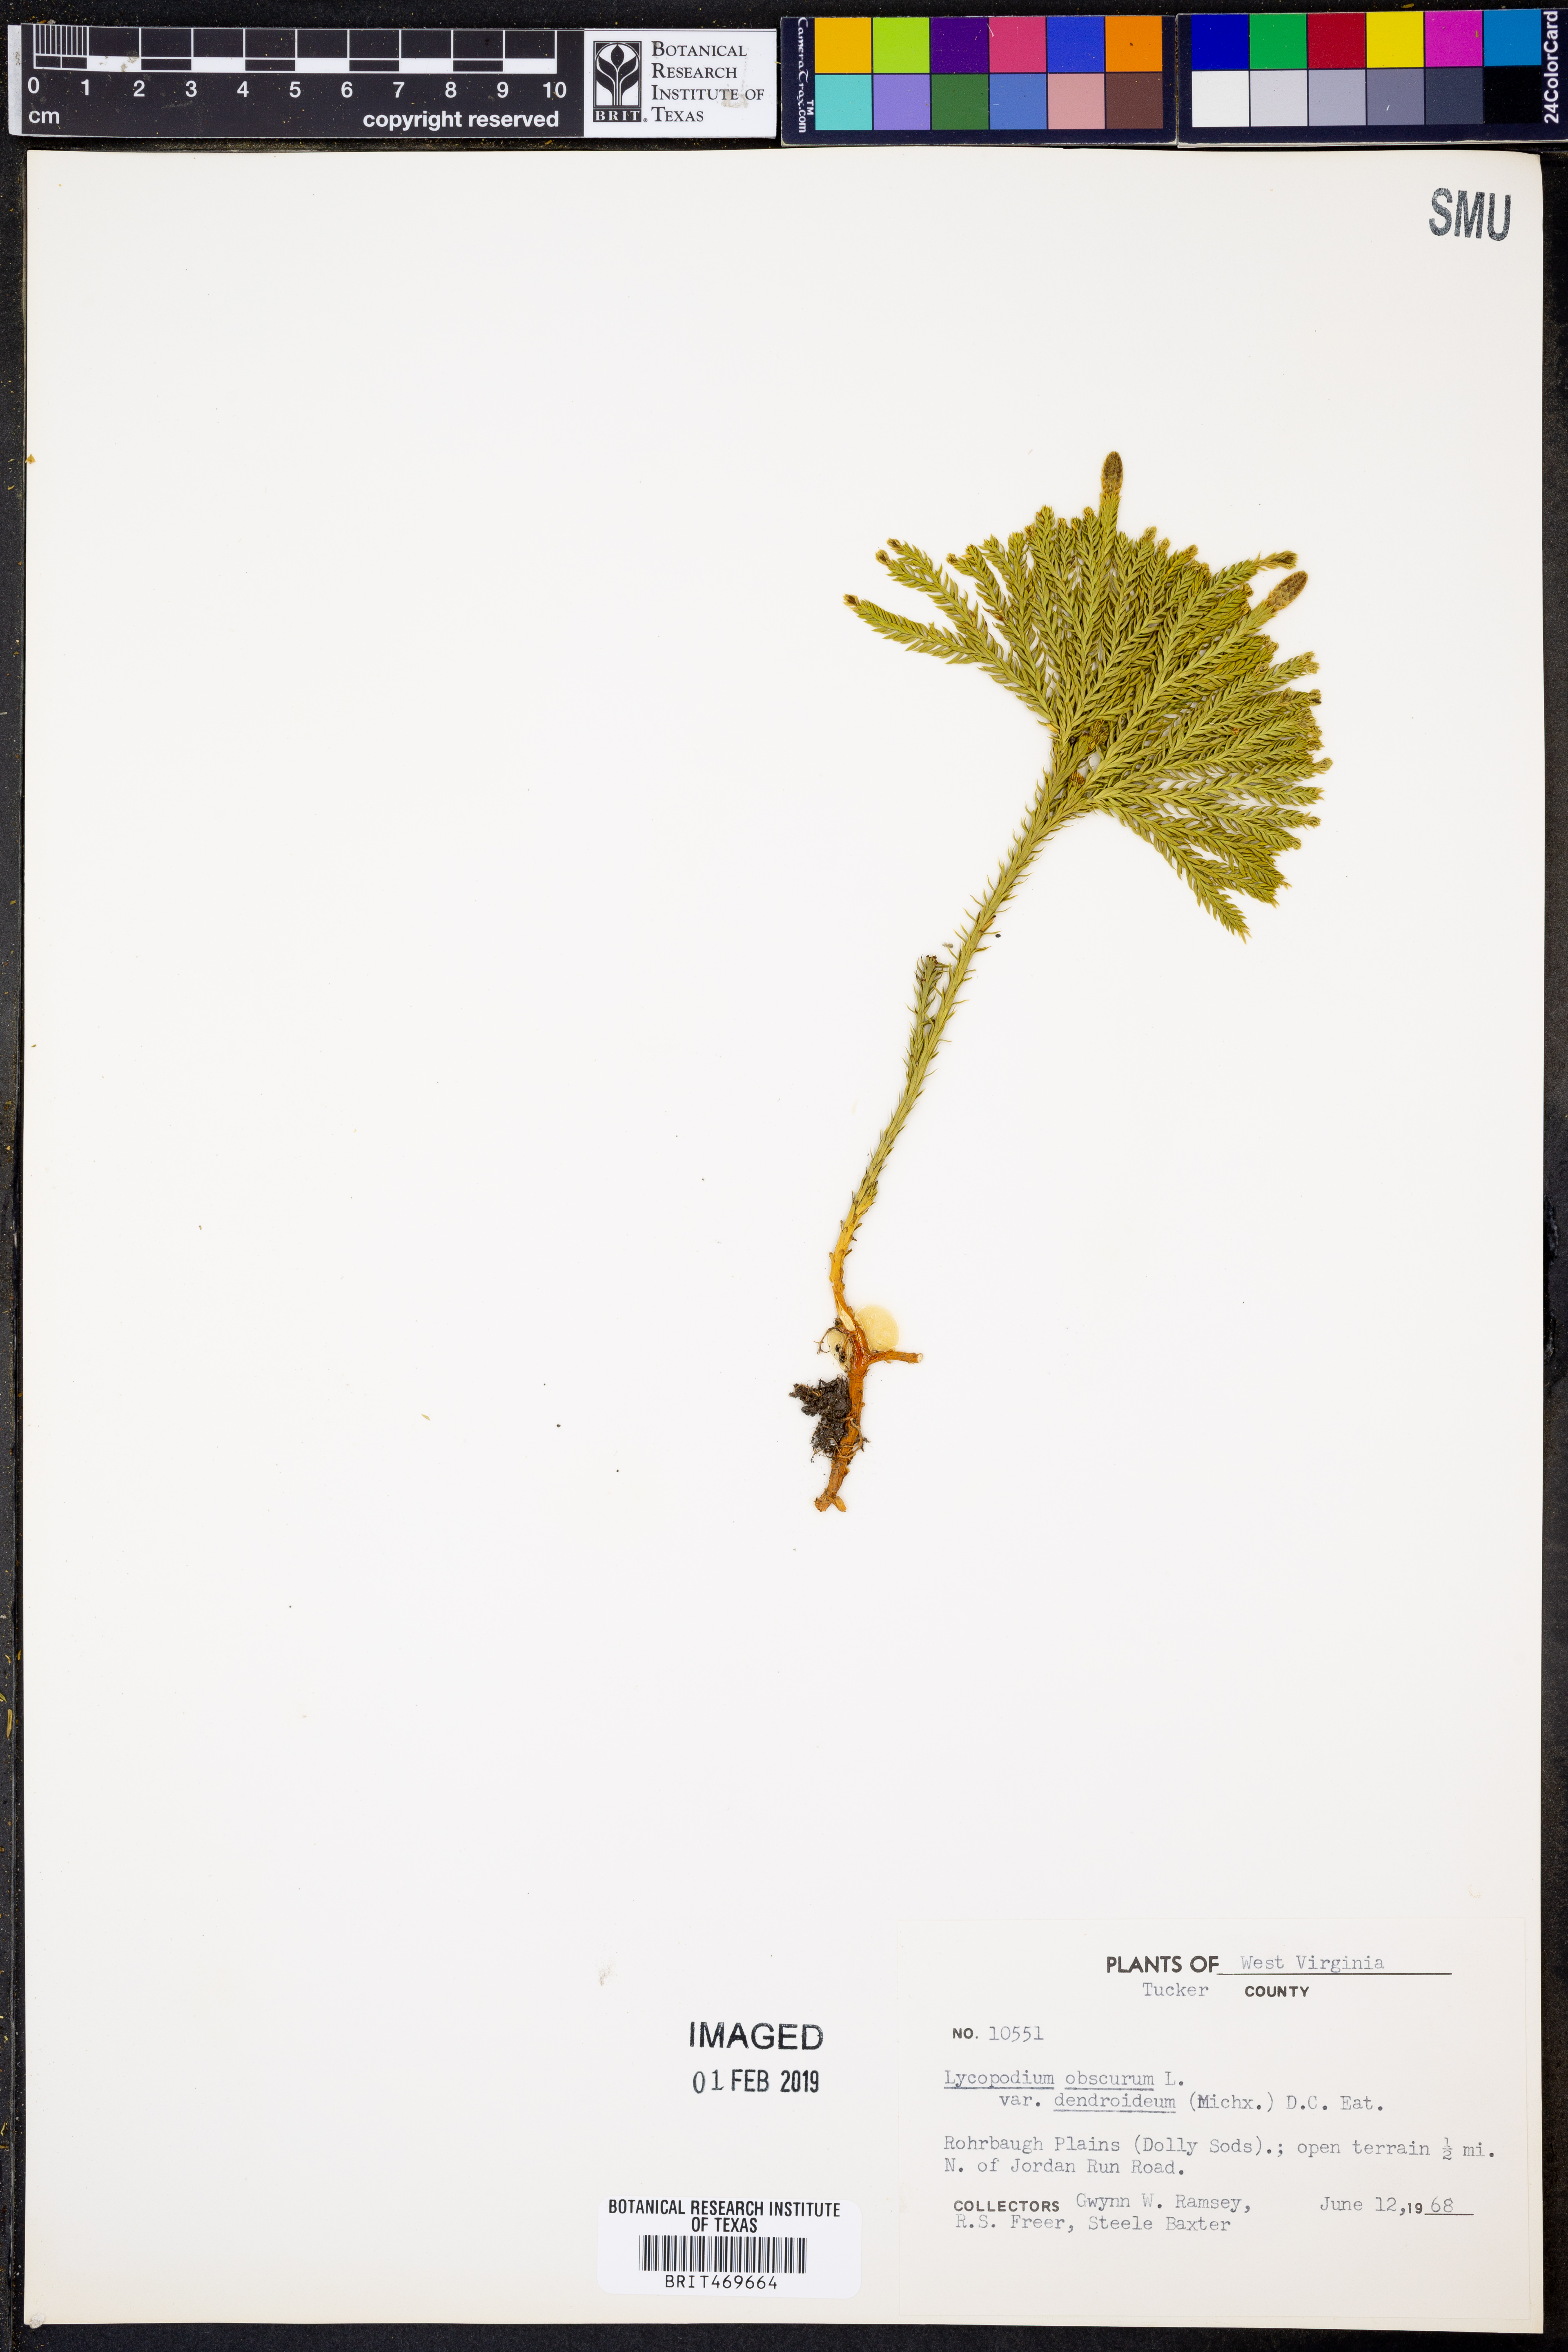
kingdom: Plantae
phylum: Tracheophyta
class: Lycopodiopsida
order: Lycopodiales
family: Lycopodiaceae
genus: Dendrolycopodium
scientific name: Dendrolycopodium dendroideum
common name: Northern tree-clubmoss
